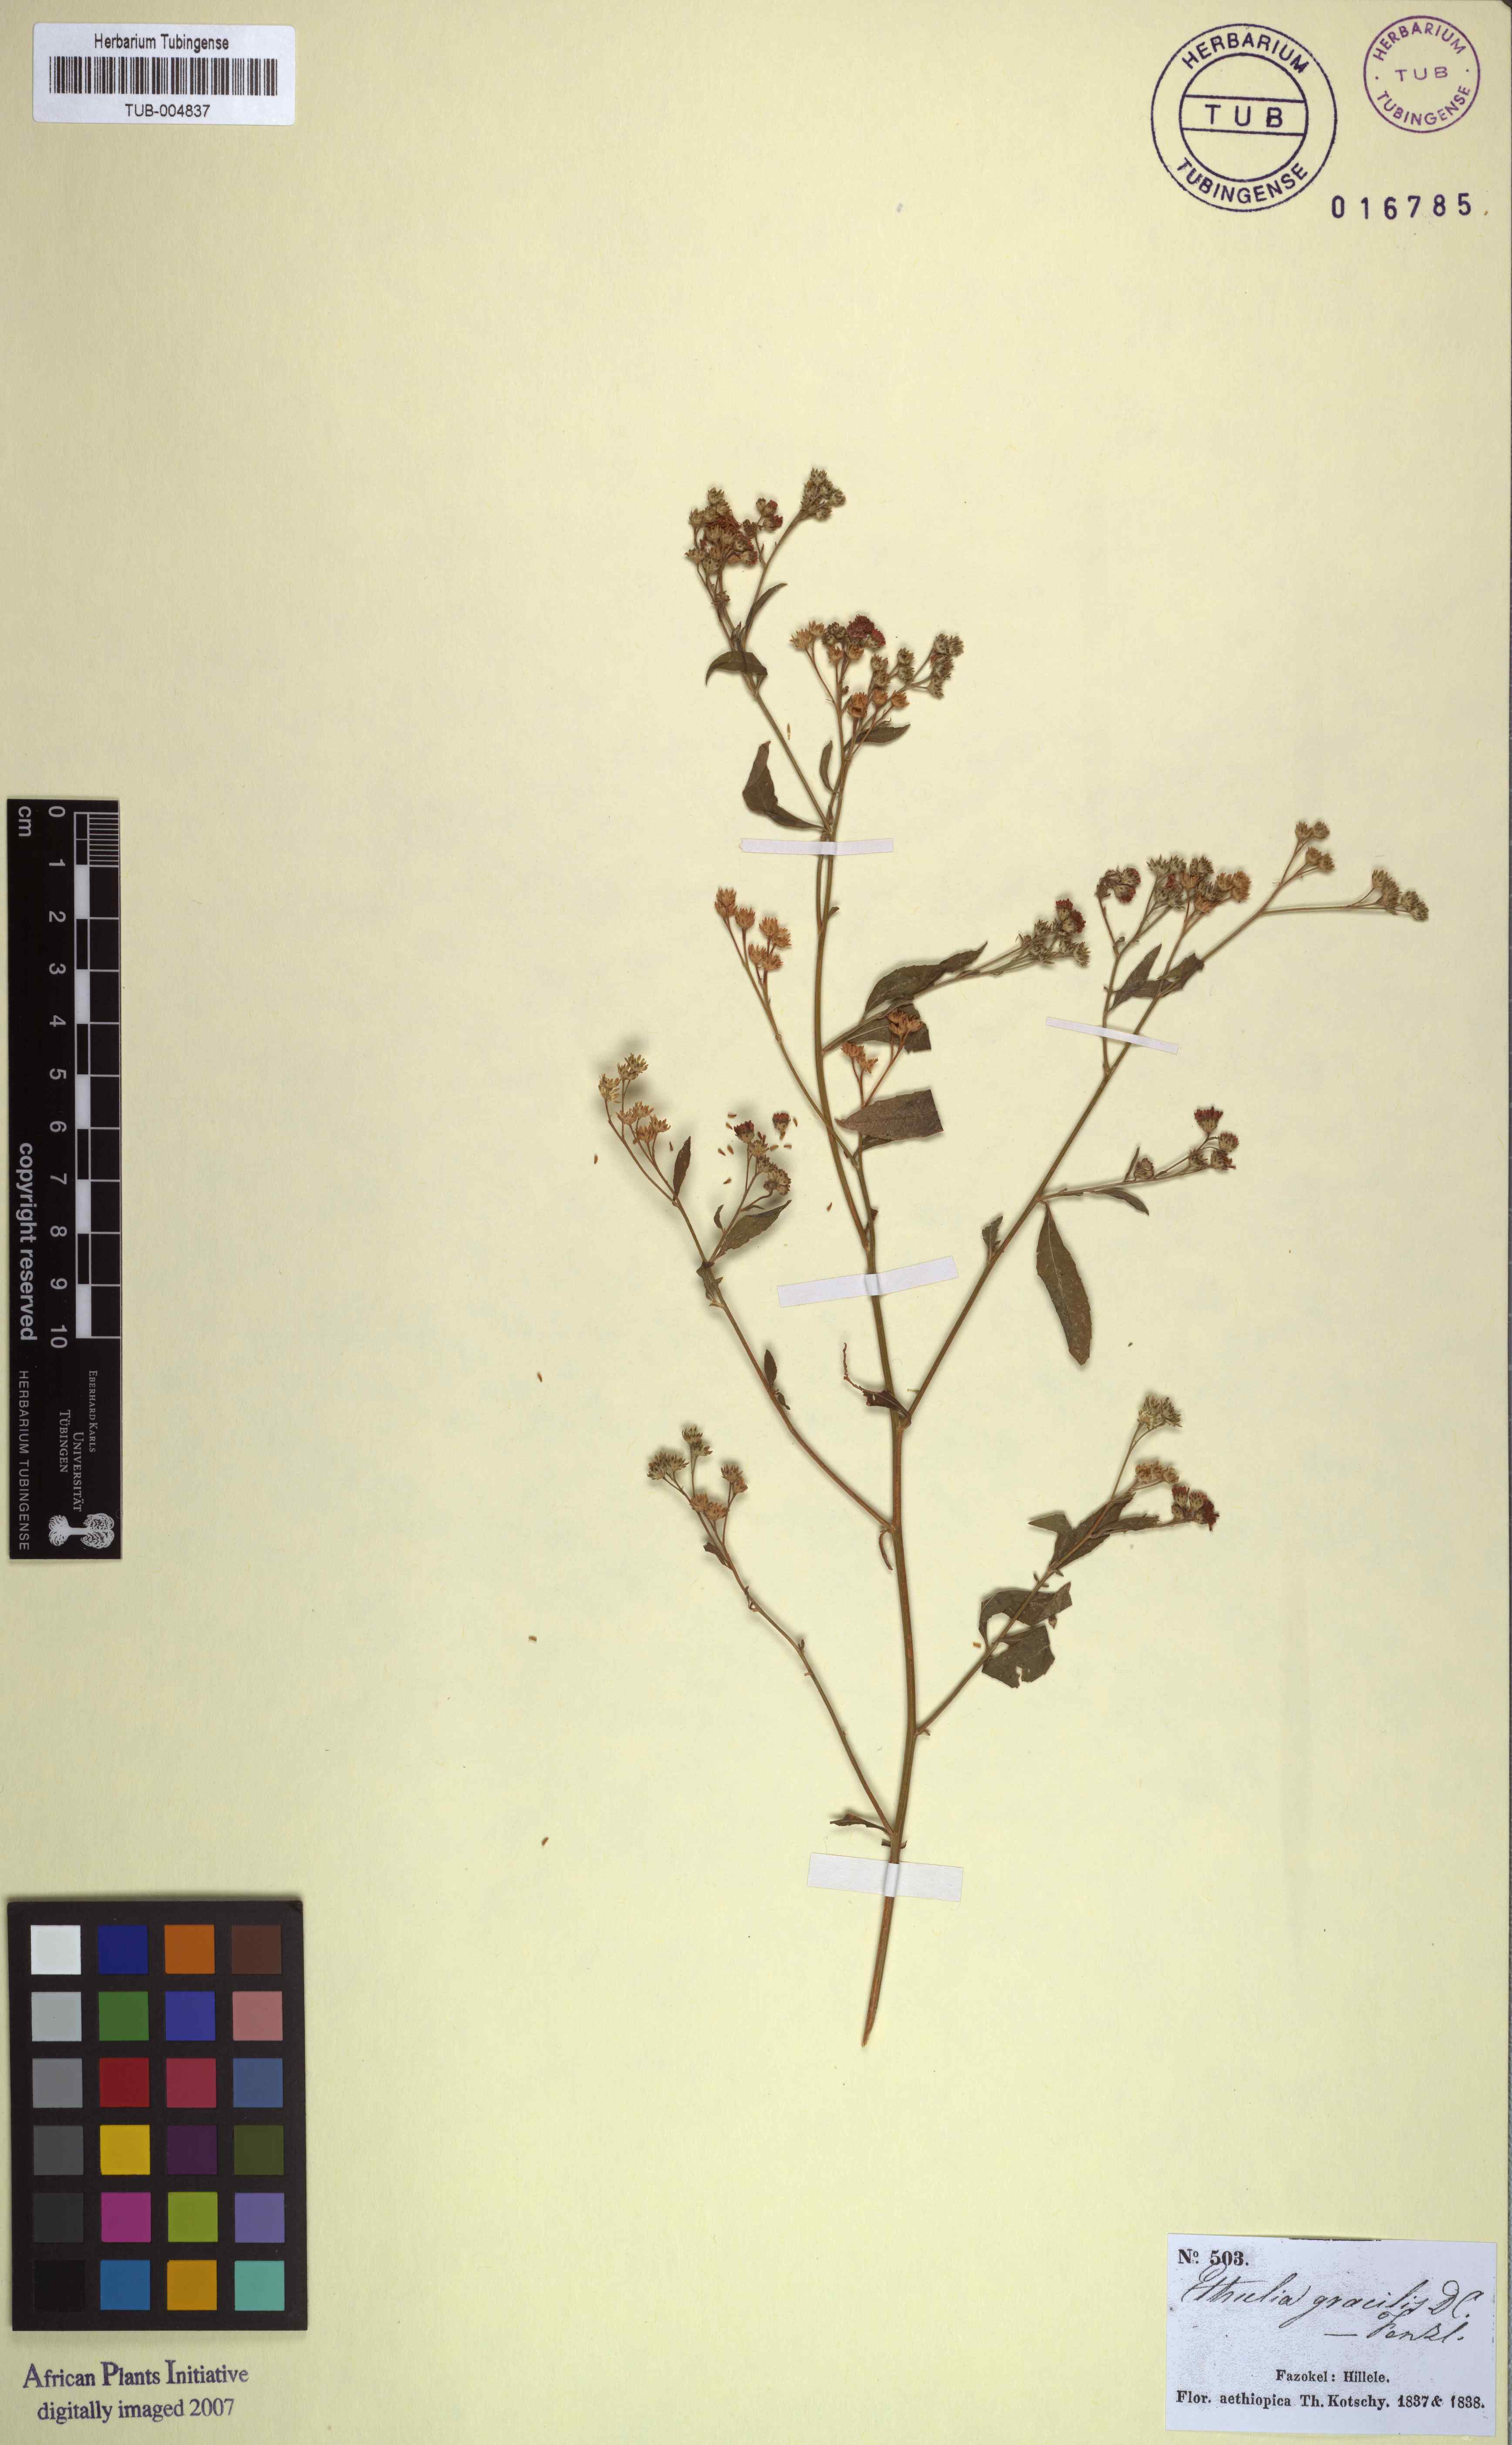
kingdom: Plantae
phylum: Tracheophyta
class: Magnoliopsida
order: Asterales
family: Asteraceae
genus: Ethulia
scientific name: Ethulia conyzoides
